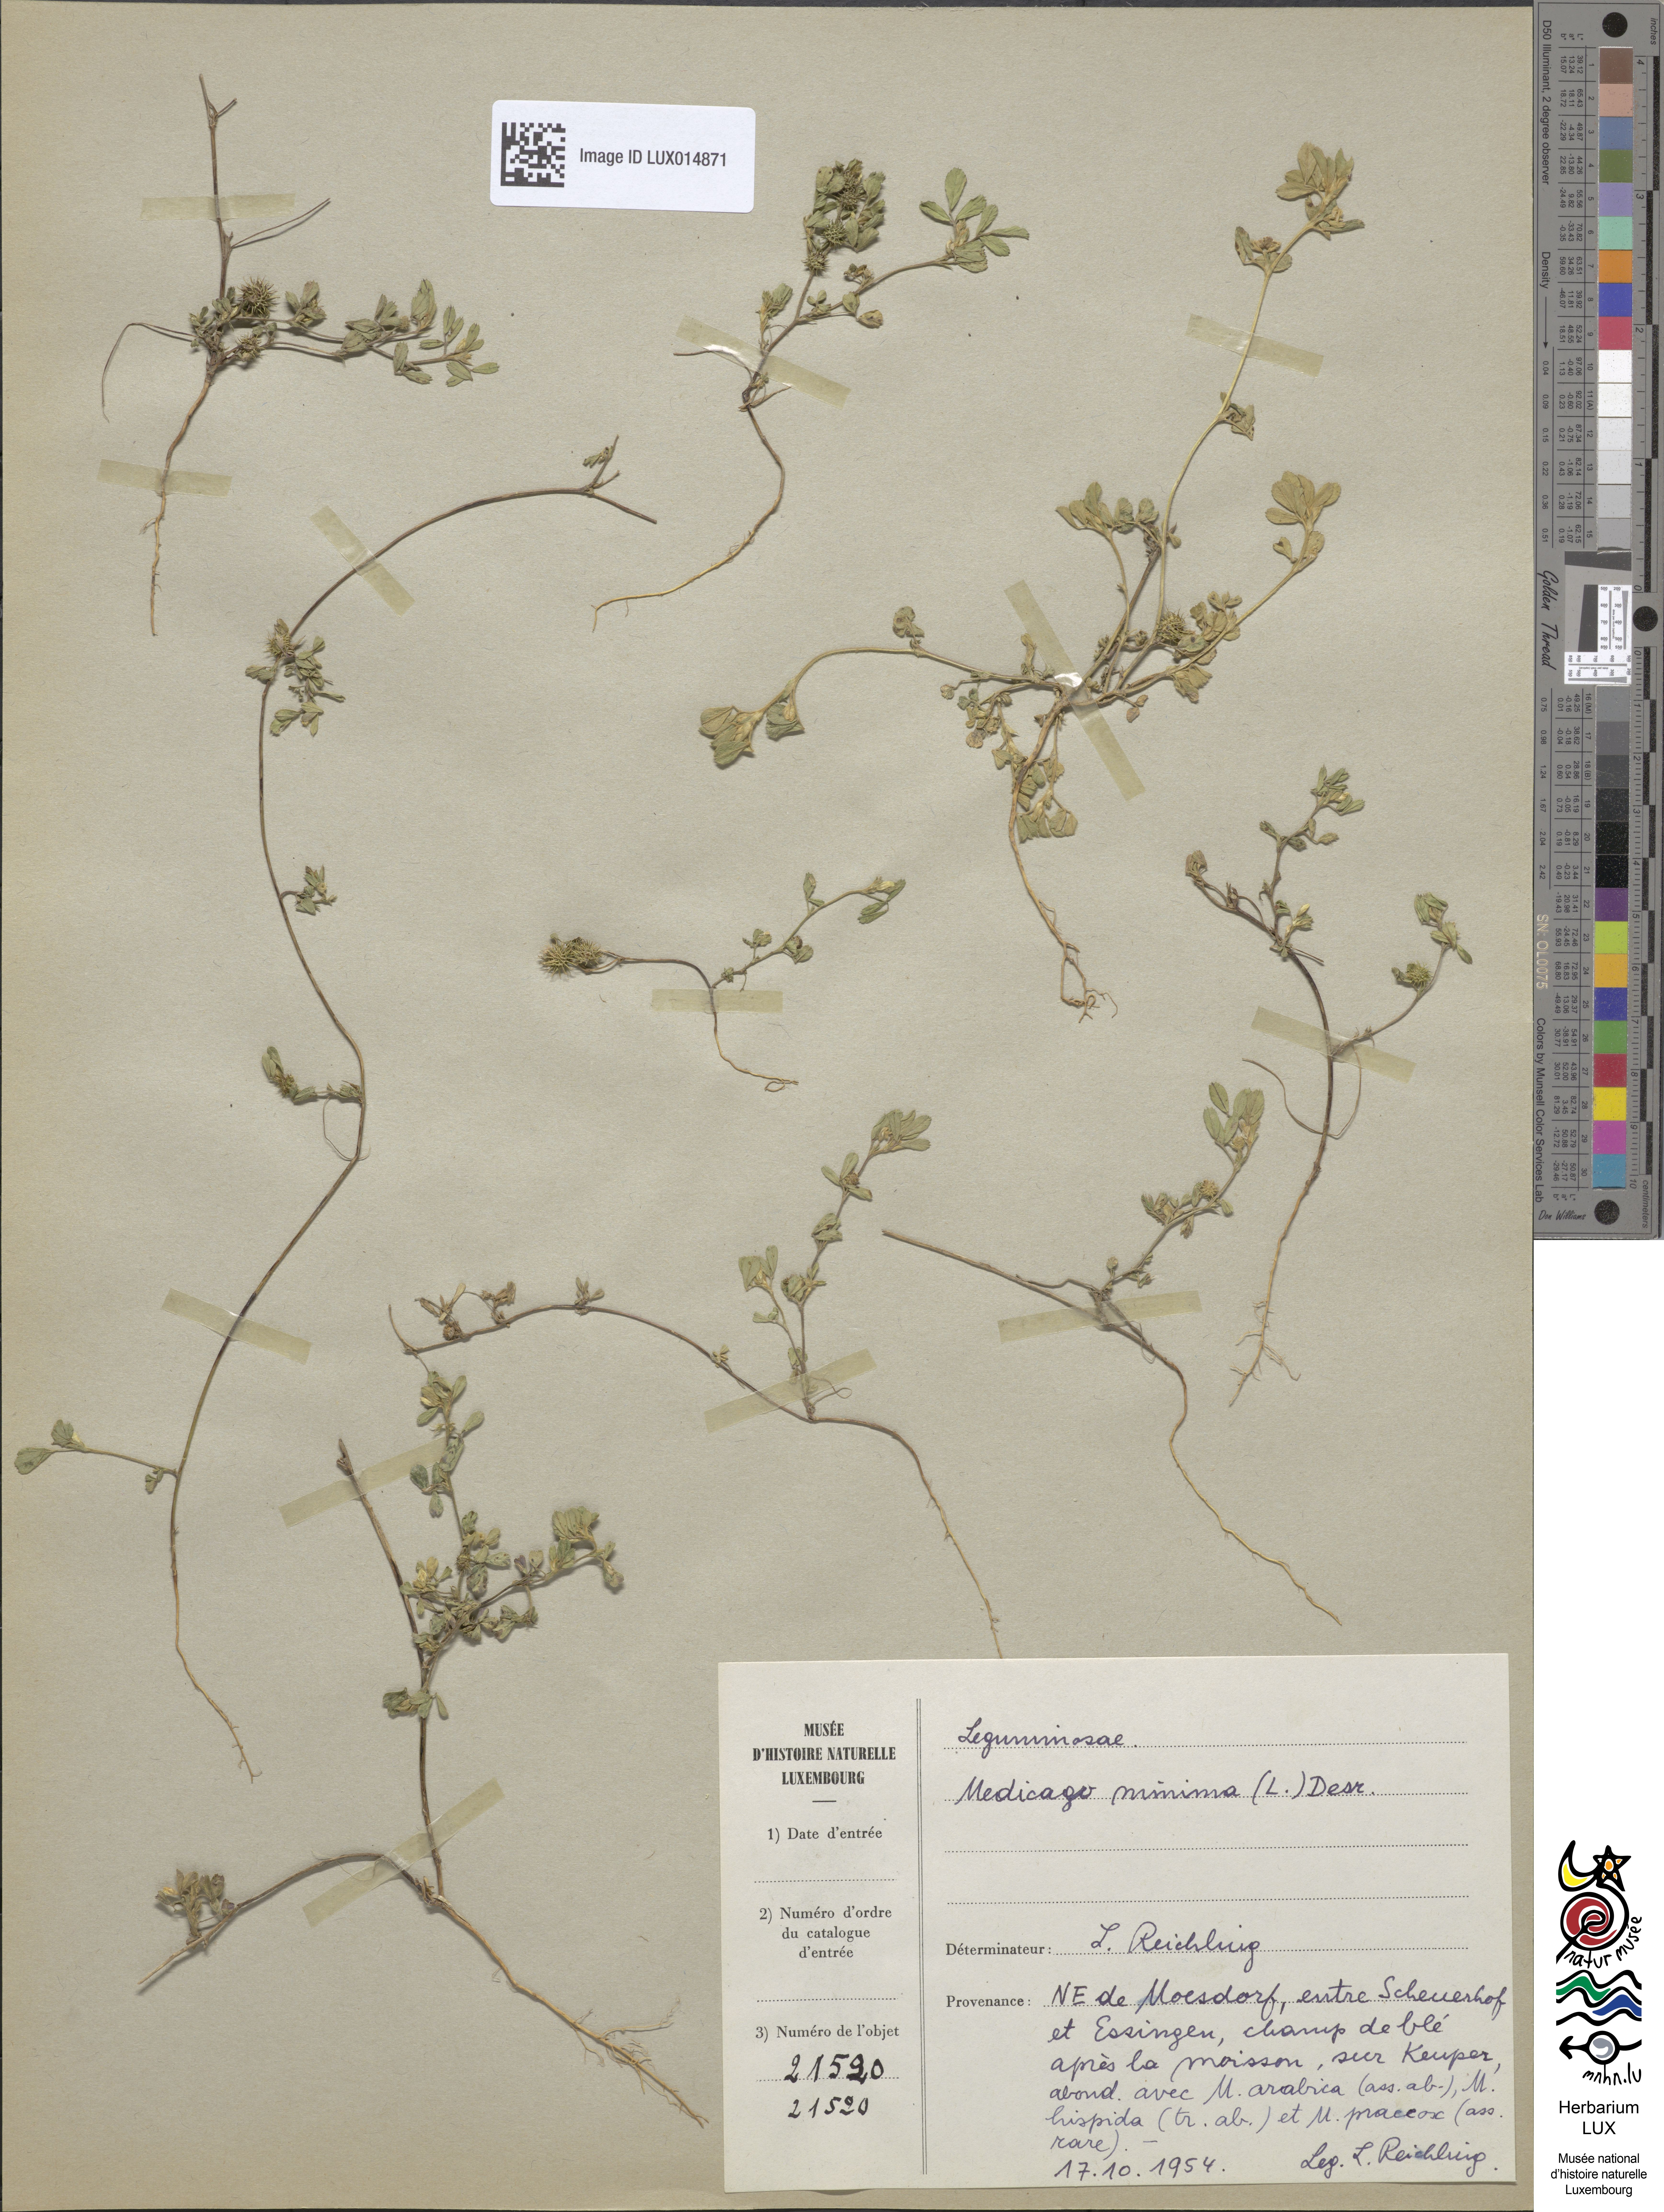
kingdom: Plantae
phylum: Tracheophyta
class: Magnoliopsida
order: Fabales
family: Fabaceae
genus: Medicago
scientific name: Medicago minima
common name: Little bur-clover
